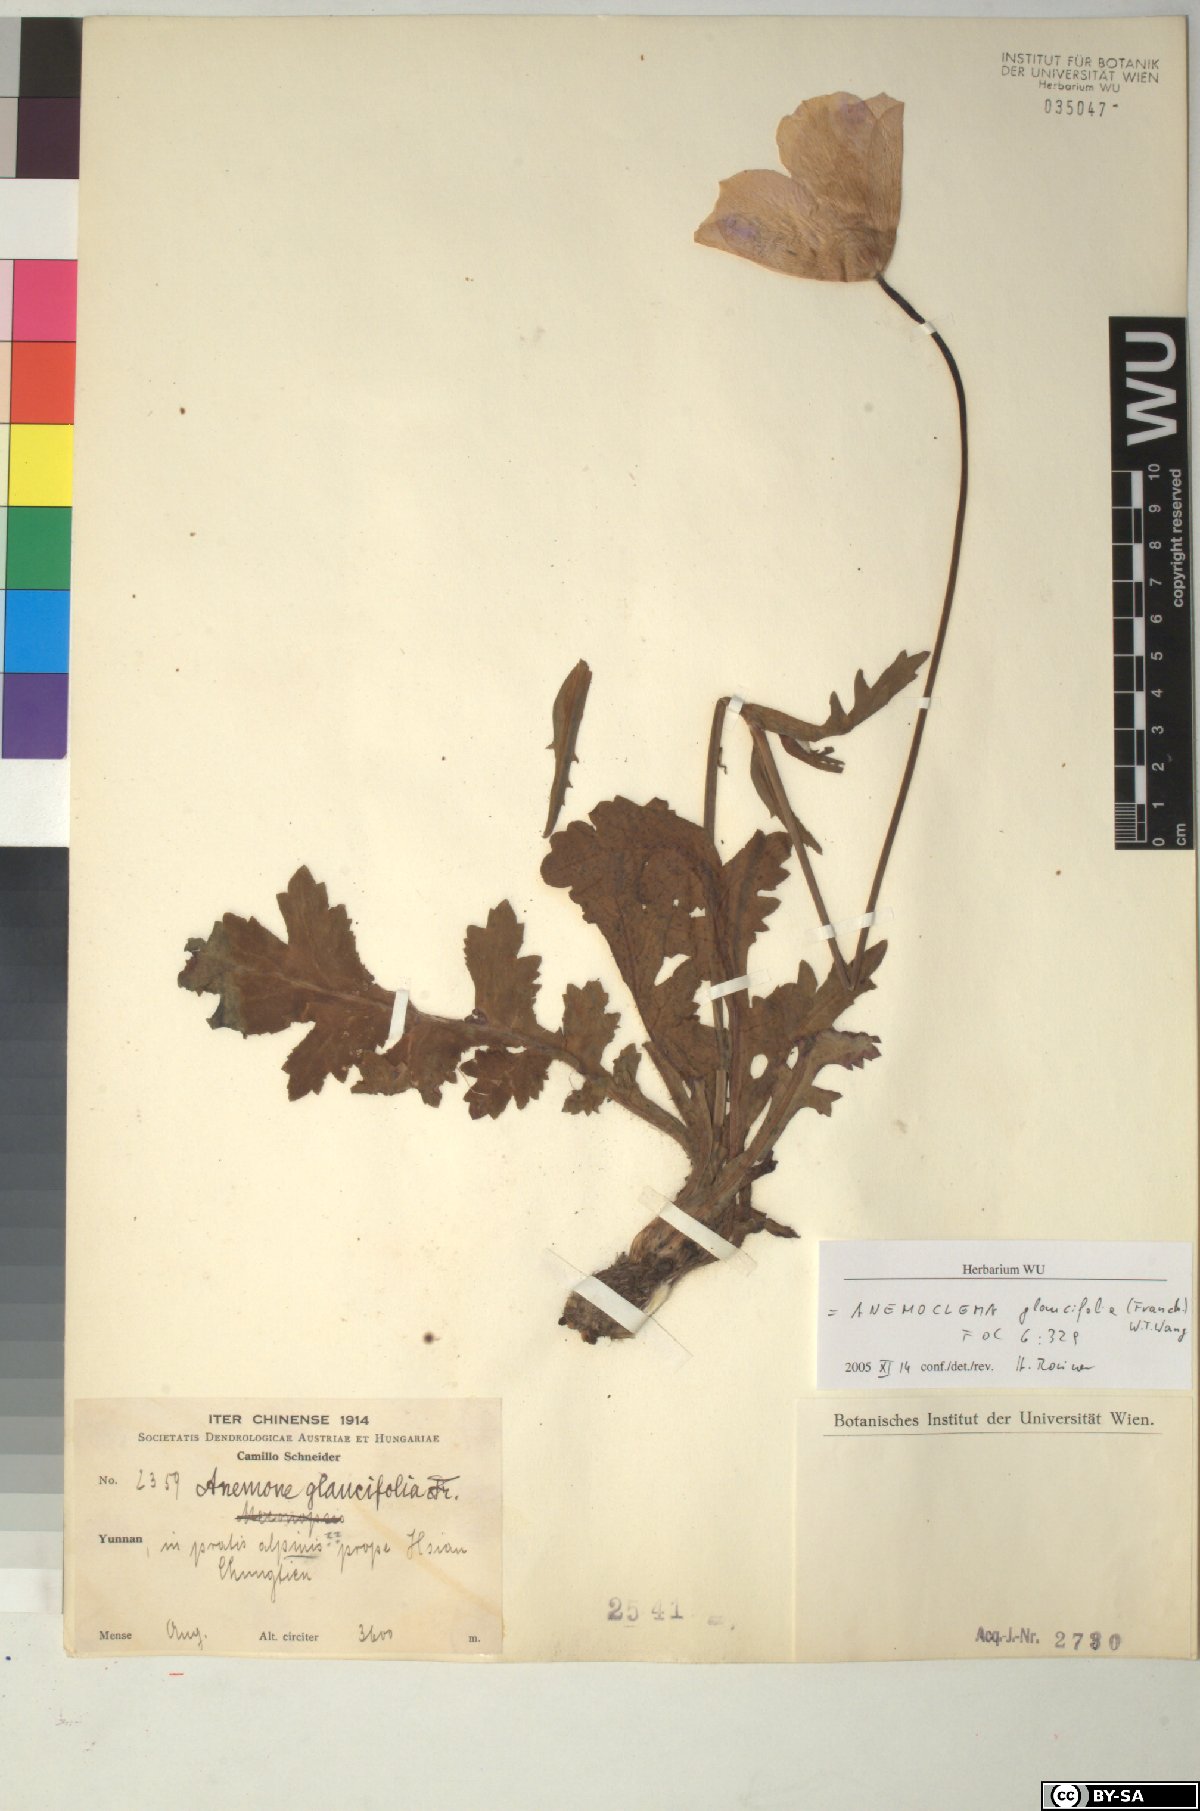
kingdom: Plantae
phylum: Tracheophyta
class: Magnoliopsida
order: Ranunculales
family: Ranunculaceae
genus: Anemone
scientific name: Anemone glaucifolia
